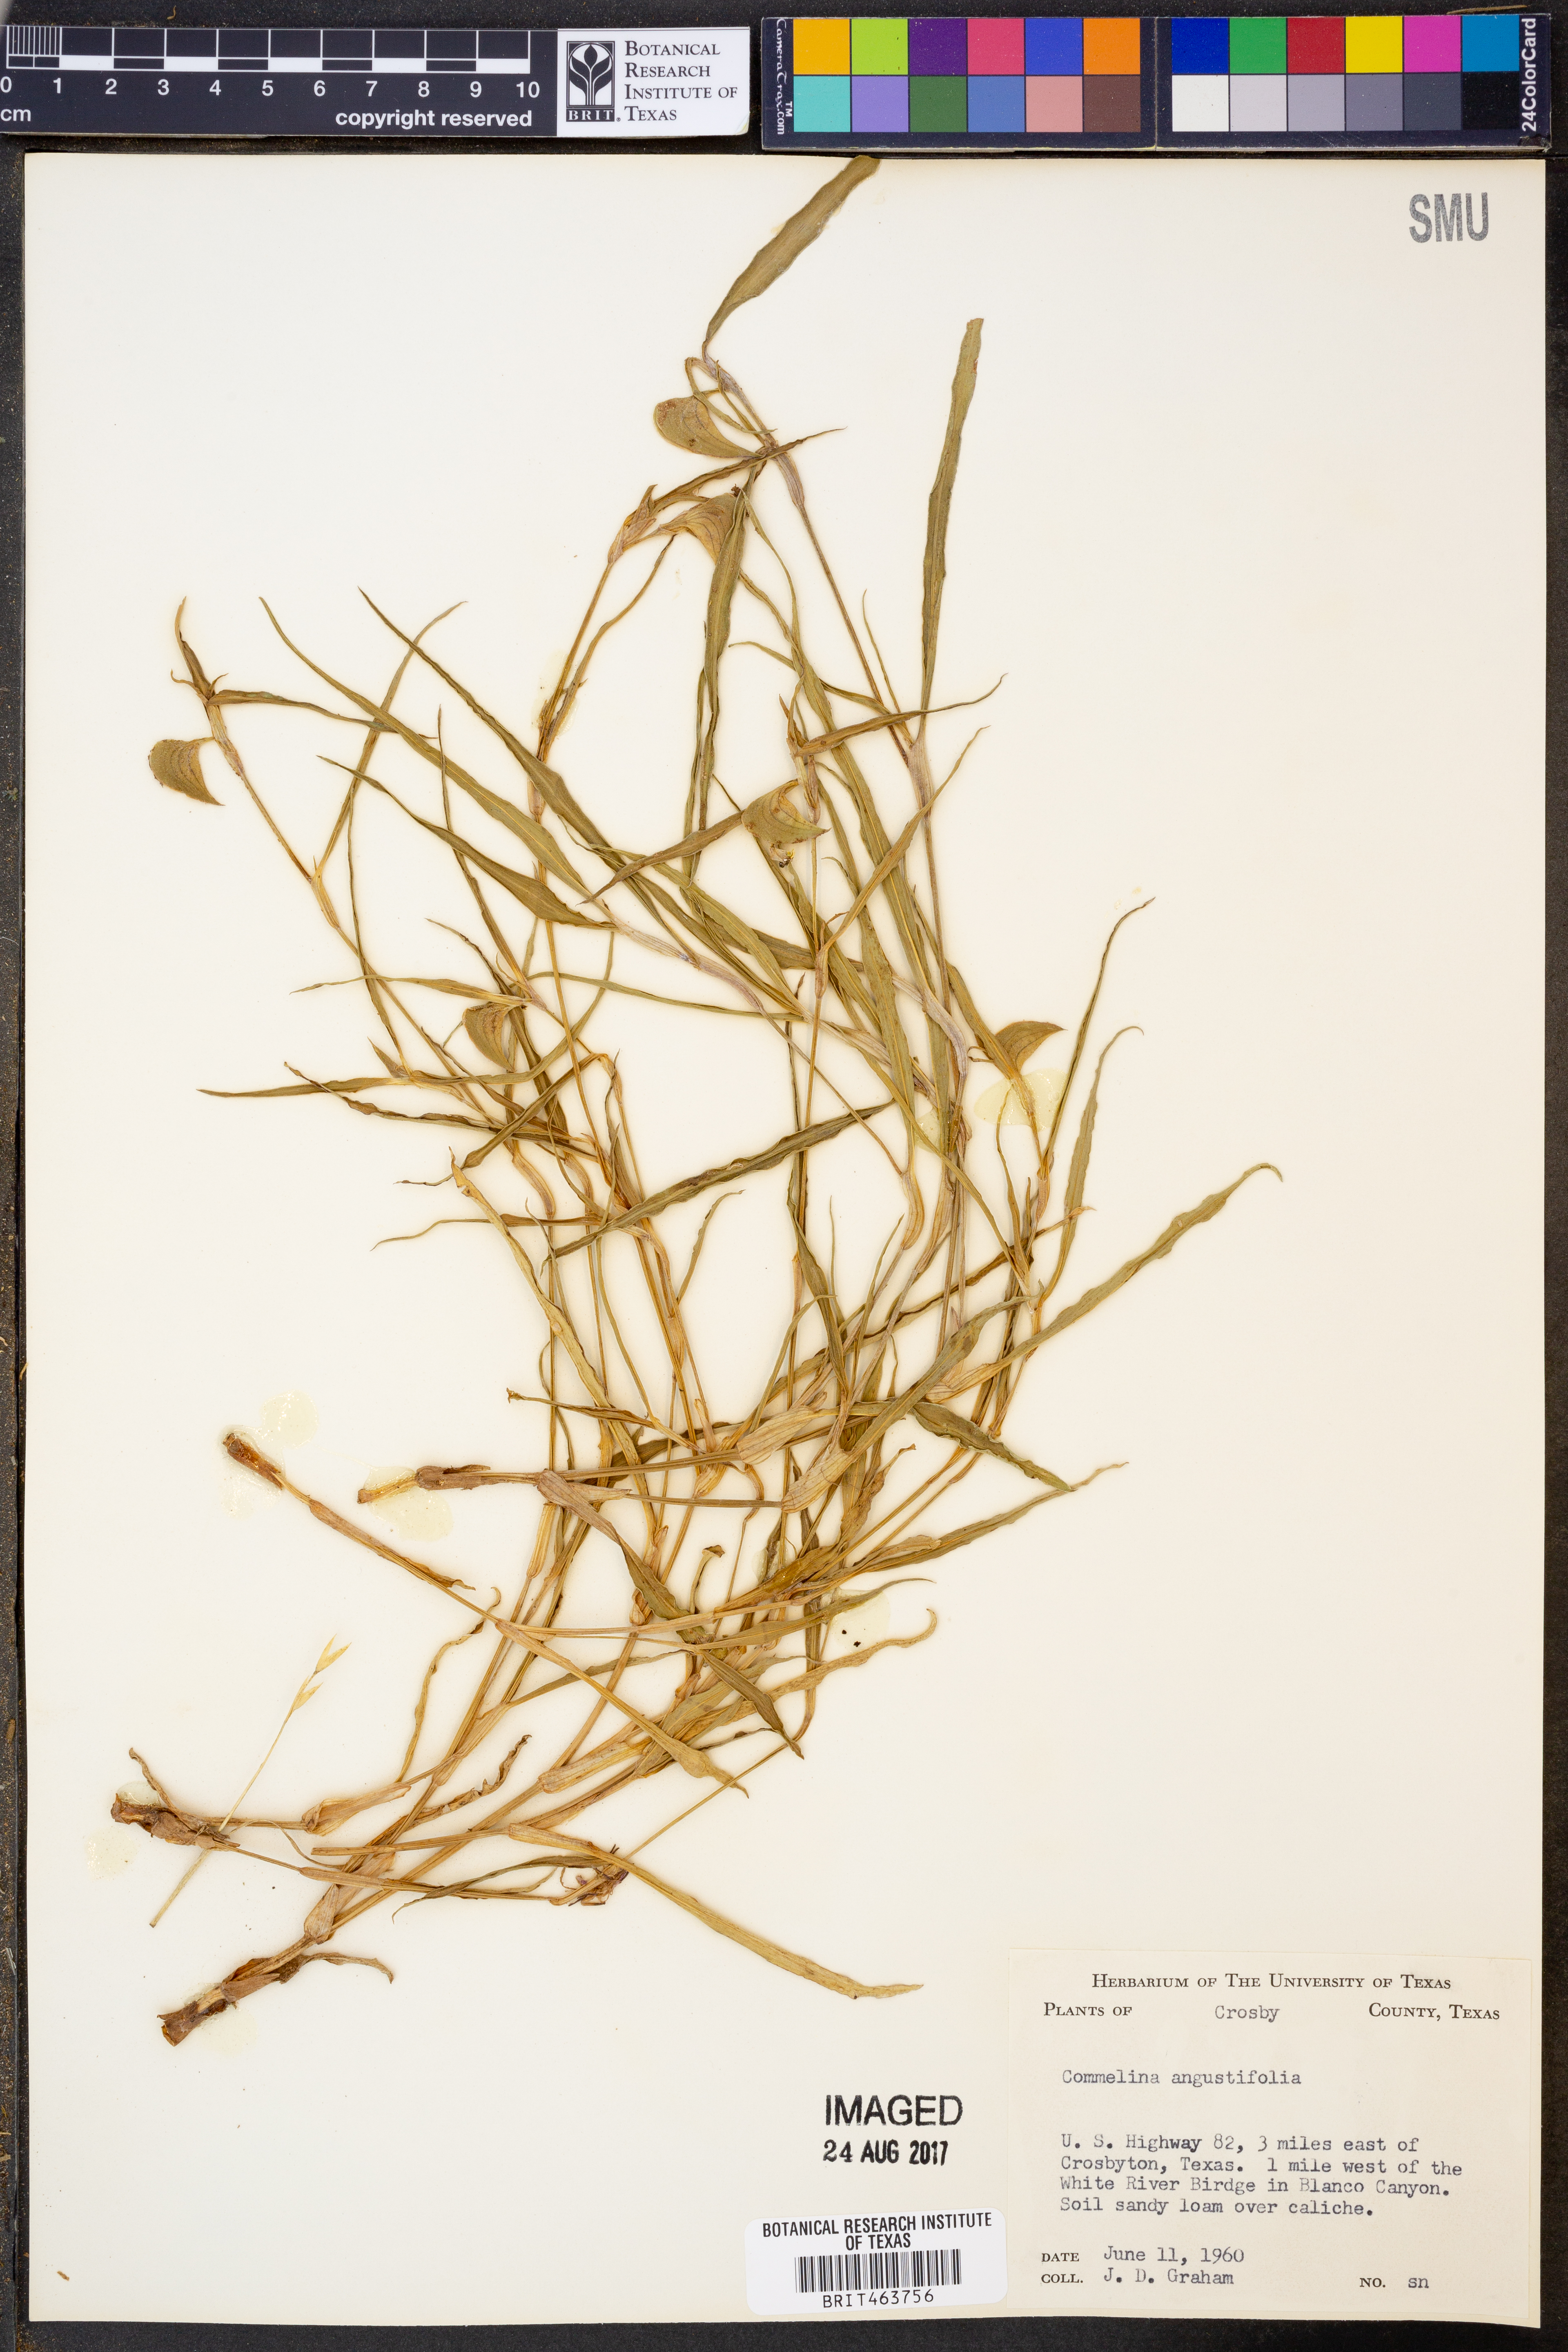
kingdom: Plantae
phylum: Tracheophyta
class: Liliopsida
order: Commelinales
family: Commelinaceae
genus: Commelina
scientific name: Commelina erecta
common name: Blousel blommetjie
